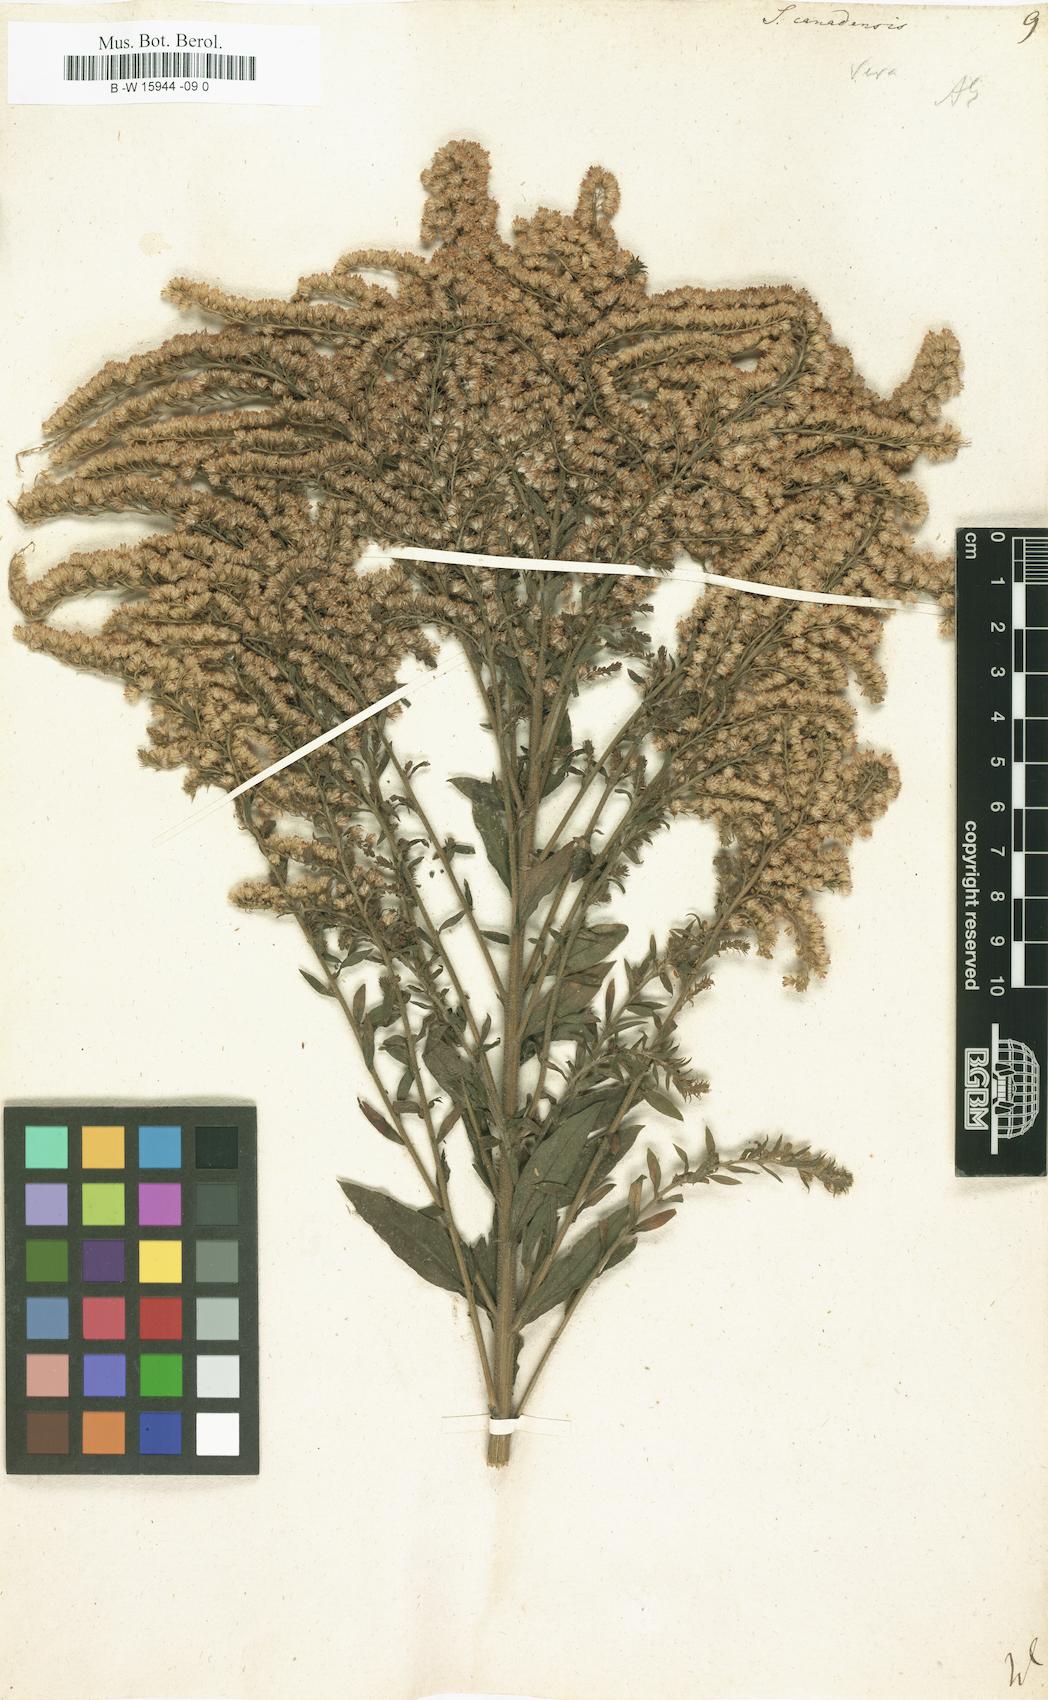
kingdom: Plantae
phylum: Tracheophyta
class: Magnoliopsida
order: Asterales
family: Asteraceae
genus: Solidago
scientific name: Solidago canadensis
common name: Canada goldenrod
